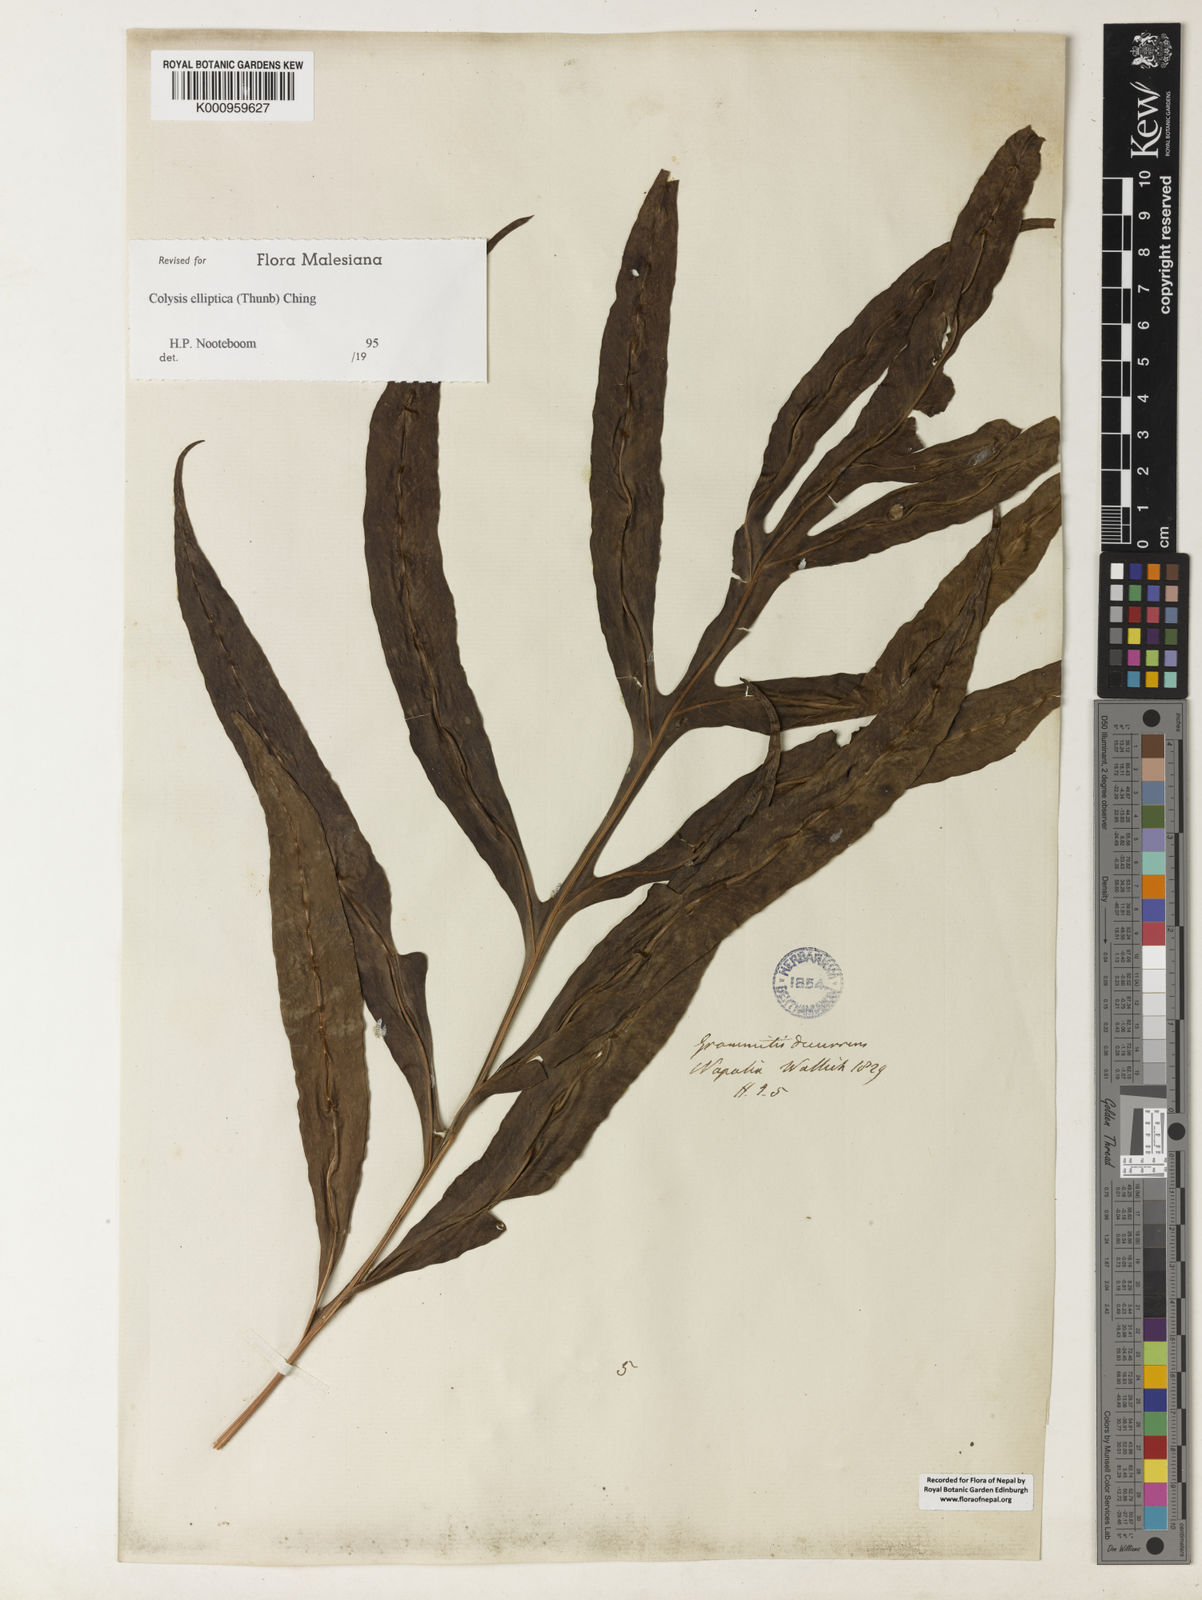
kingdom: Plantae
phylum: Tracheophyta
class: Polypodiopsida
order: Polypodiales
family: Polypodiaceae
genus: Leptochilus
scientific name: Leptochilus ellipticus
